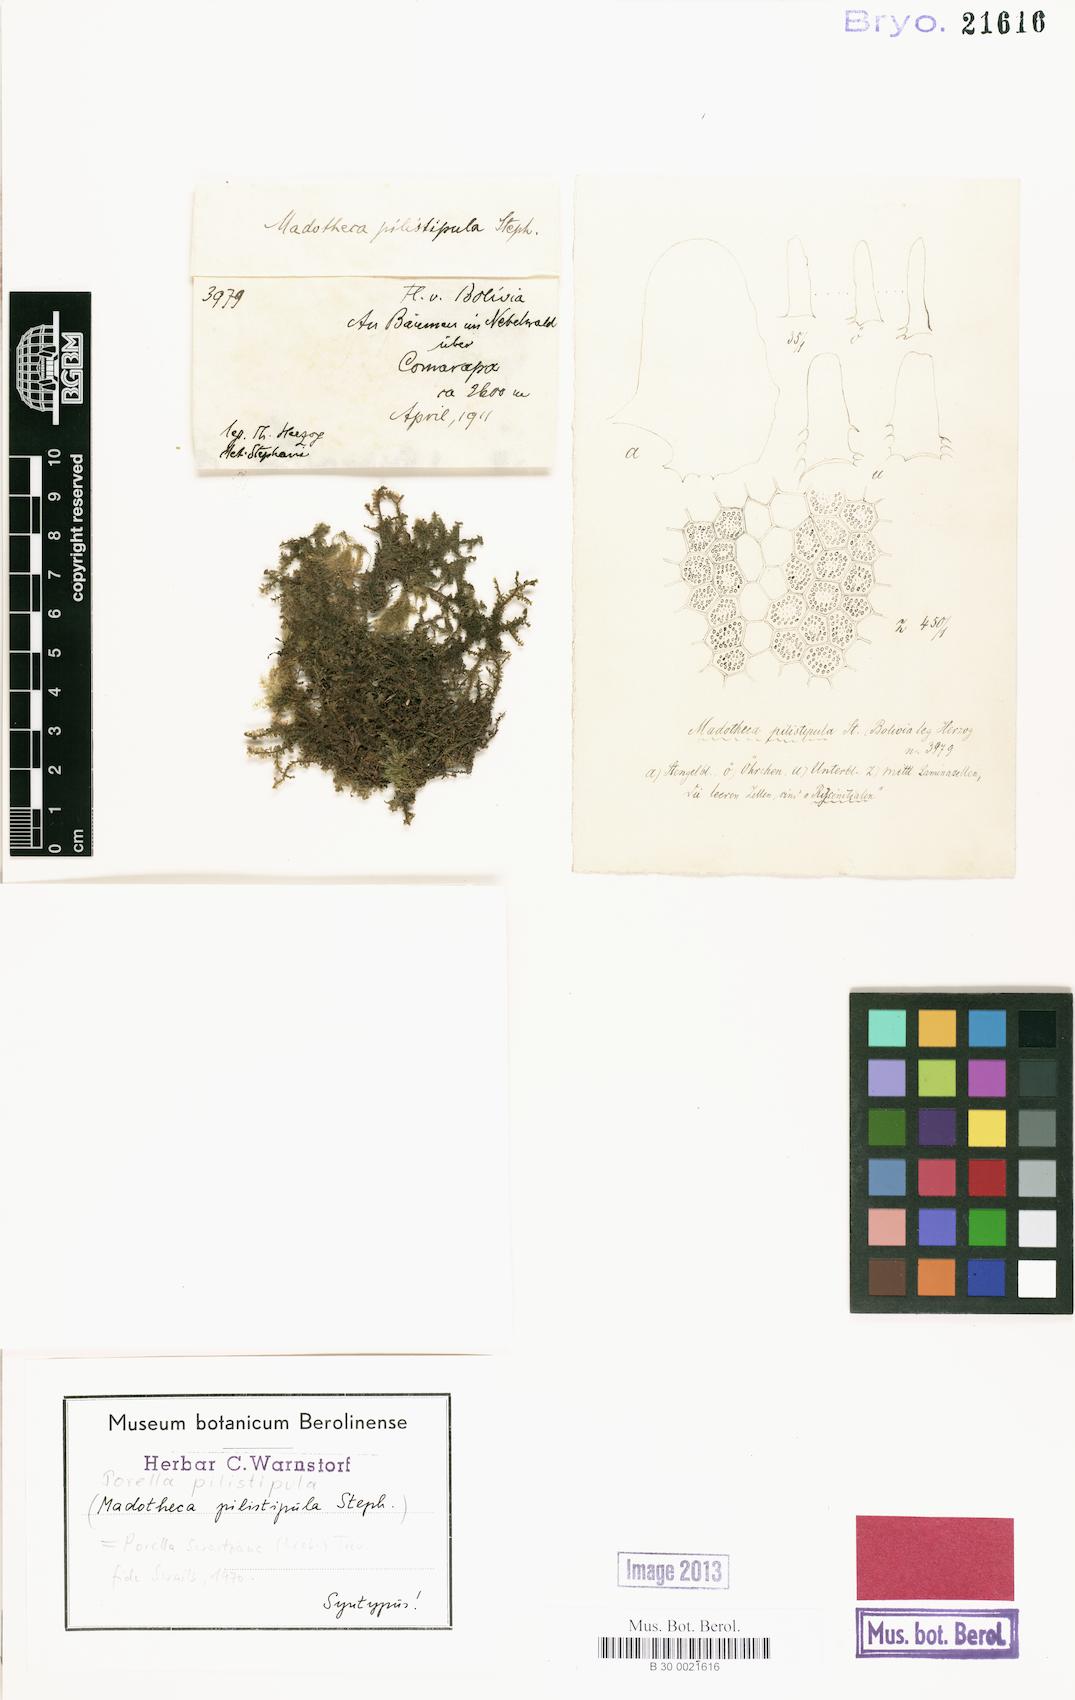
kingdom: Plantae
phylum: Marchantiophyta
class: Jungermanniopsida
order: Porellales
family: Porellaceae
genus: Porella
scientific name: Porella swartziana
